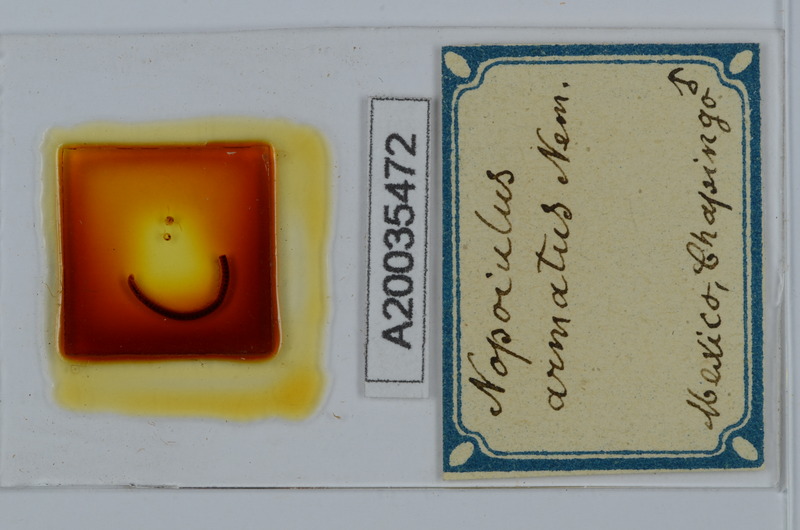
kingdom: Animalia
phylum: Arthropoda
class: Diplopoda
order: Julida
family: Blaniulidae
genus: Nopoiulus
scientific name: Nopoiulus kochii
